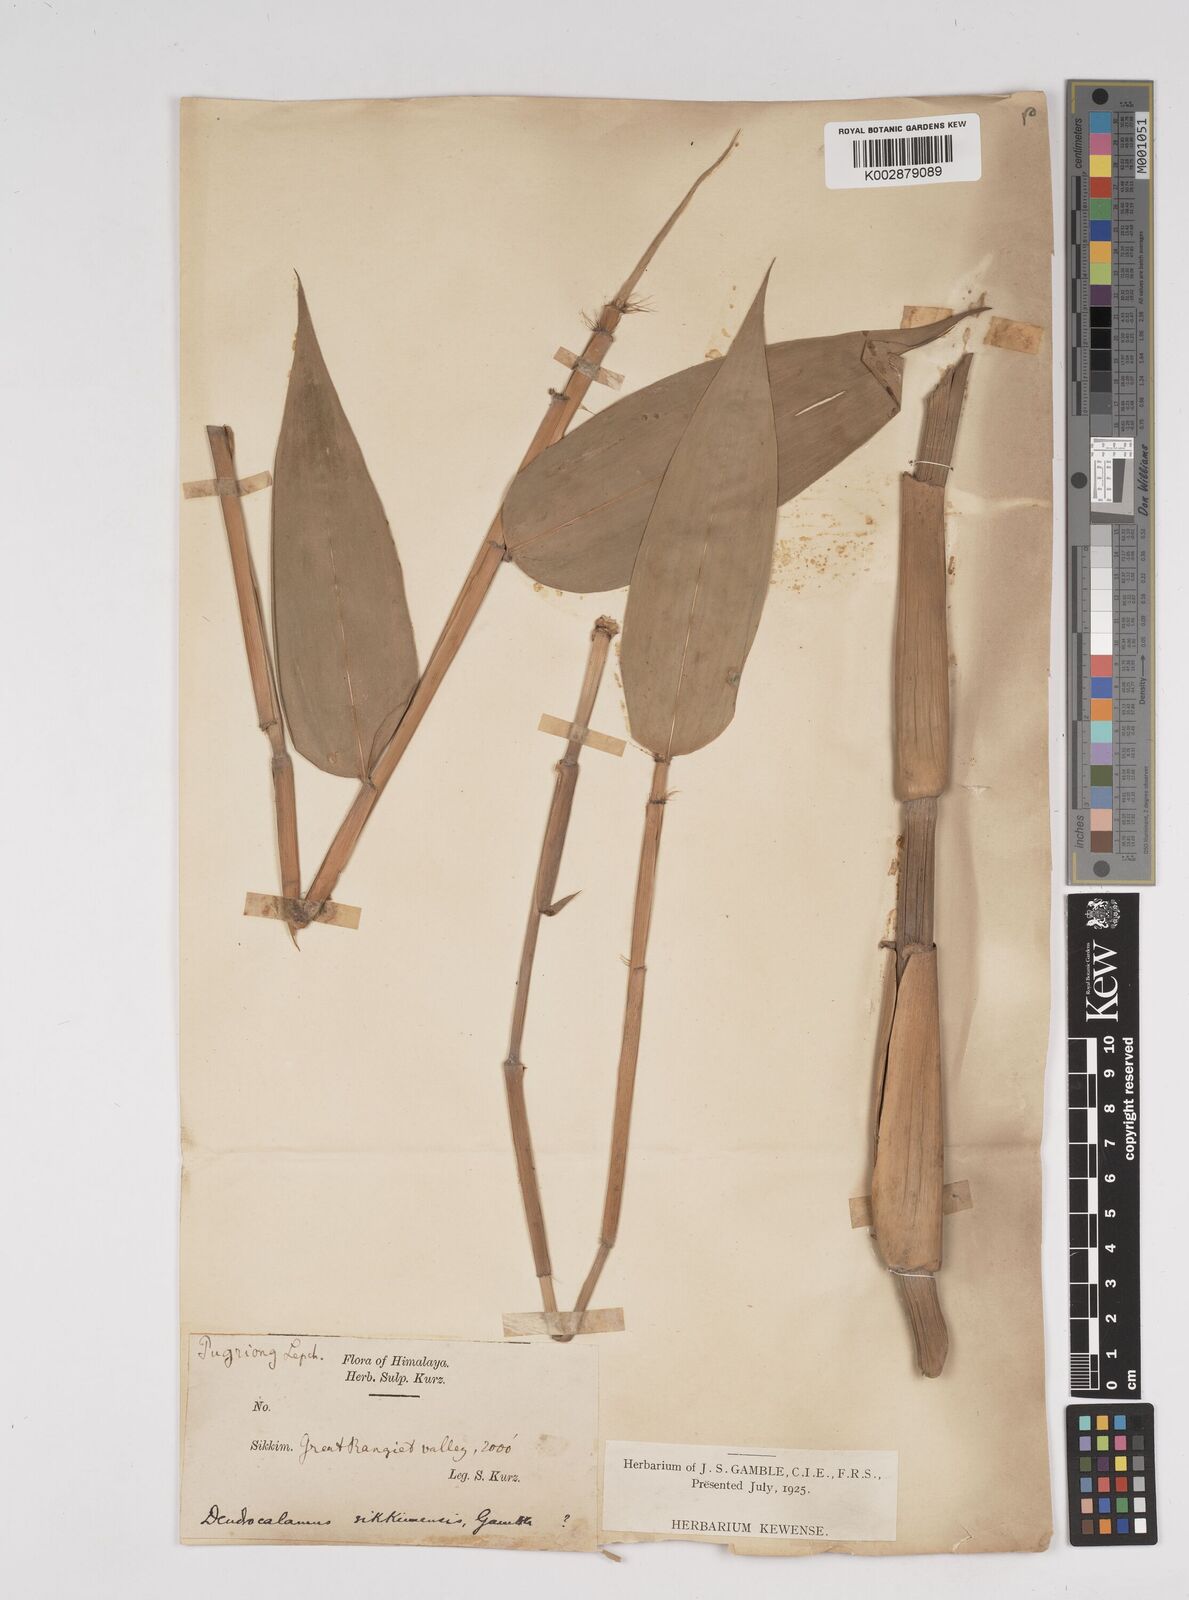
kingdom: Plantae
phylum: Tracheophyta
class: Liliopsida
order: Poales
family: Poaceae
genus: Dendrocalamus
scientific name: Dendrocalamus sikkimensis
